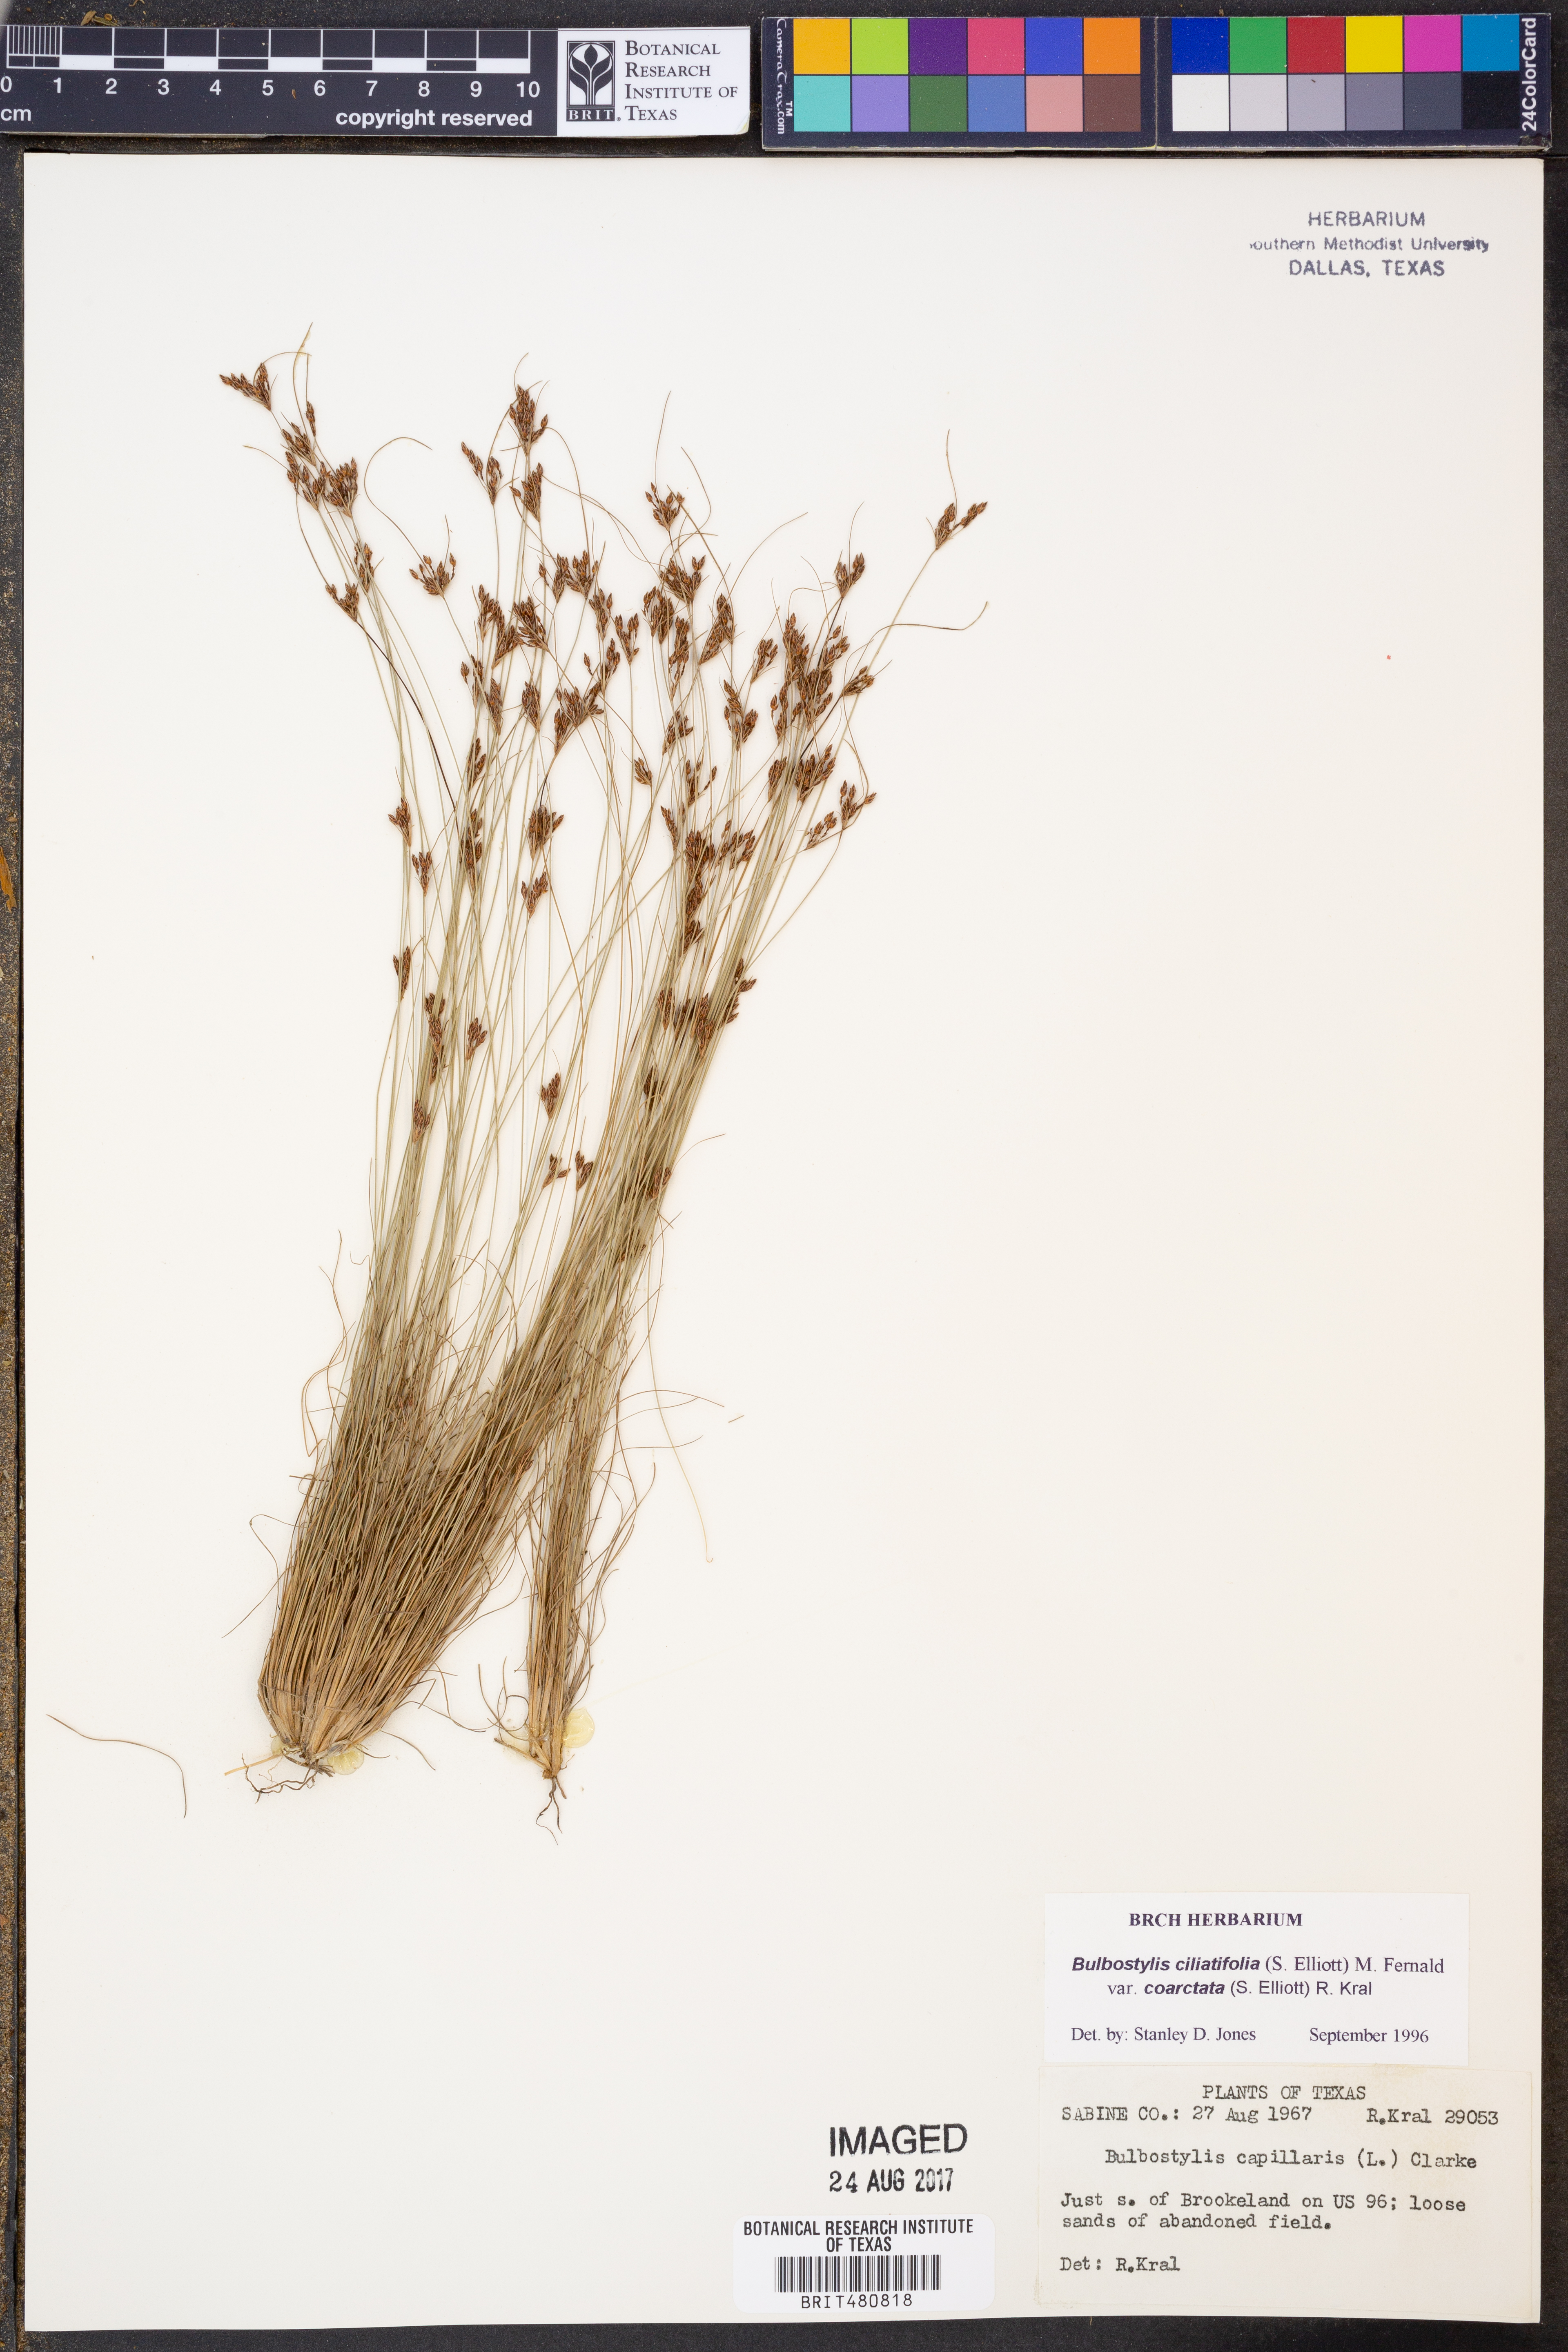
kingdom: Plantae
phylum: Tracheophyta
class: Liliopsida
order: Poales
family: Cyperaceae
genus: Bulbostylis
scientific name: Bulbostylis ciliatifolia
